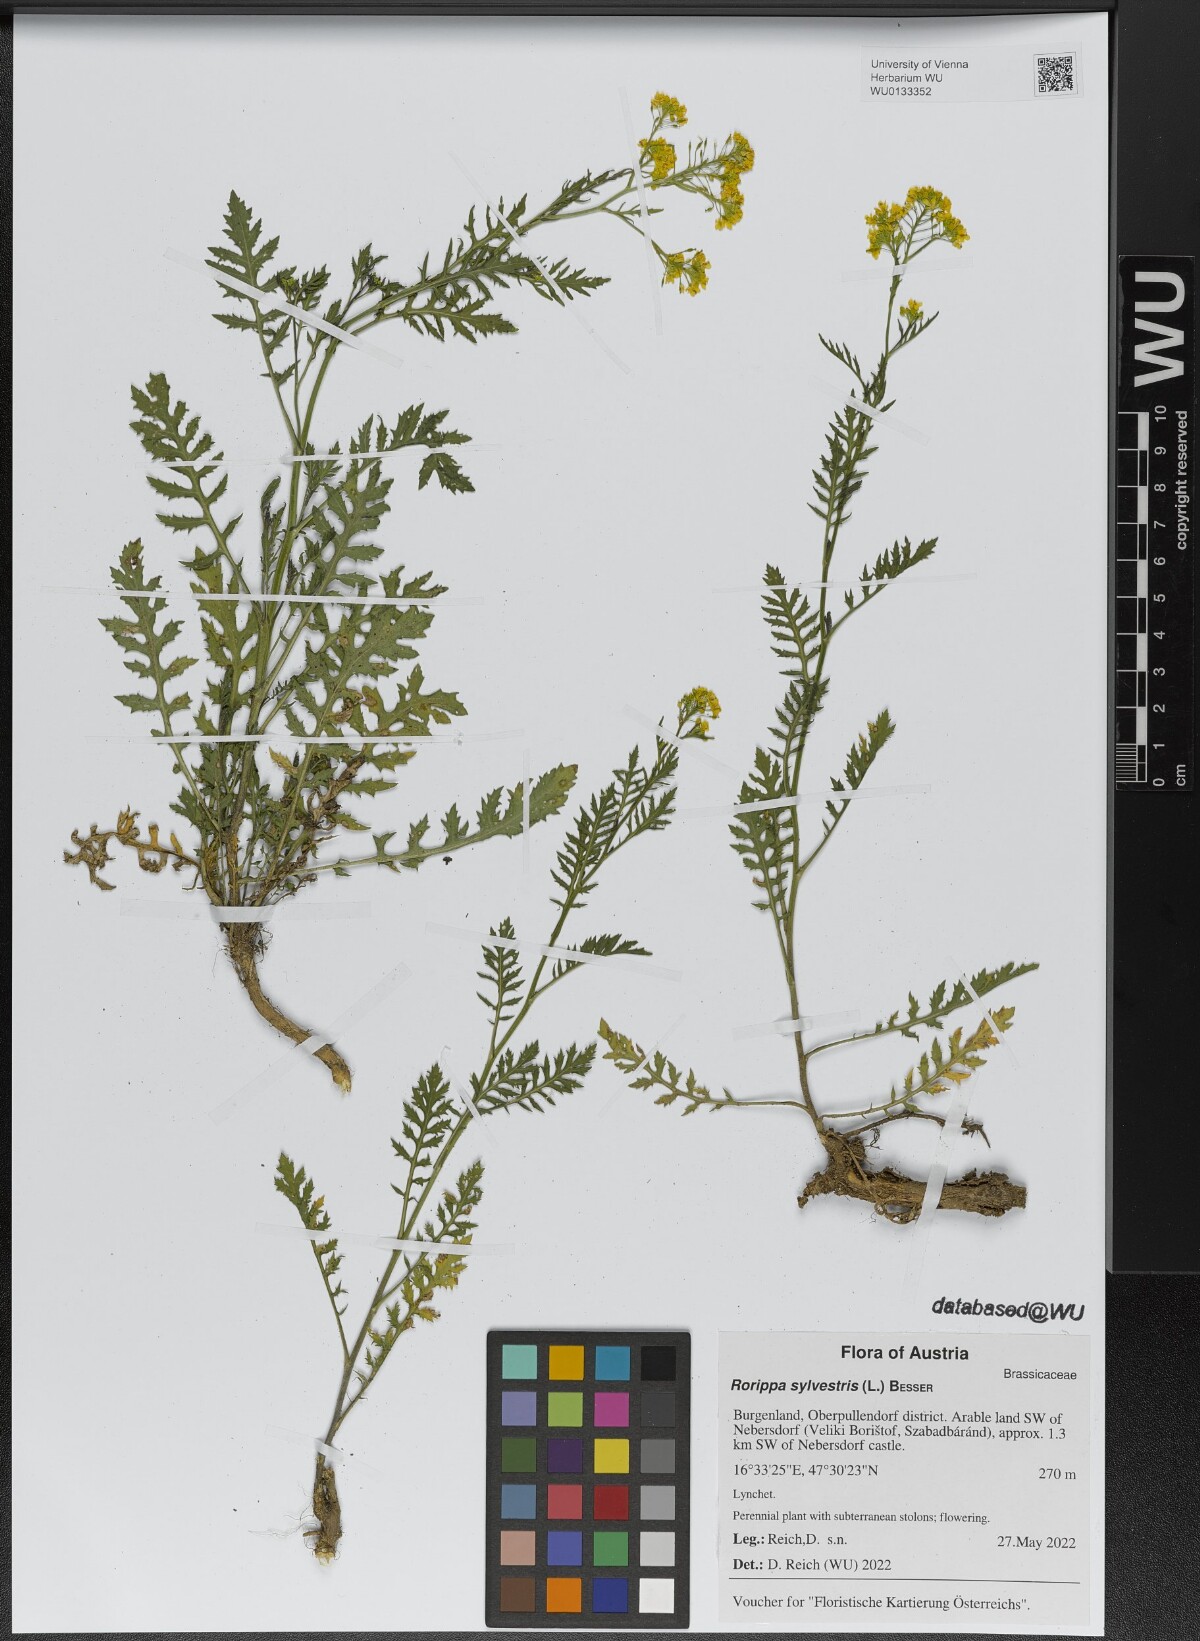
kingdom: Plantae
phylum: Tracheophyta
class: Magnoliopsida
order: Brassicales
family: Brassicaceae
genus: Rorippa
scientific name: Rorippa sylvestris
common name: Creeping yellowcress
